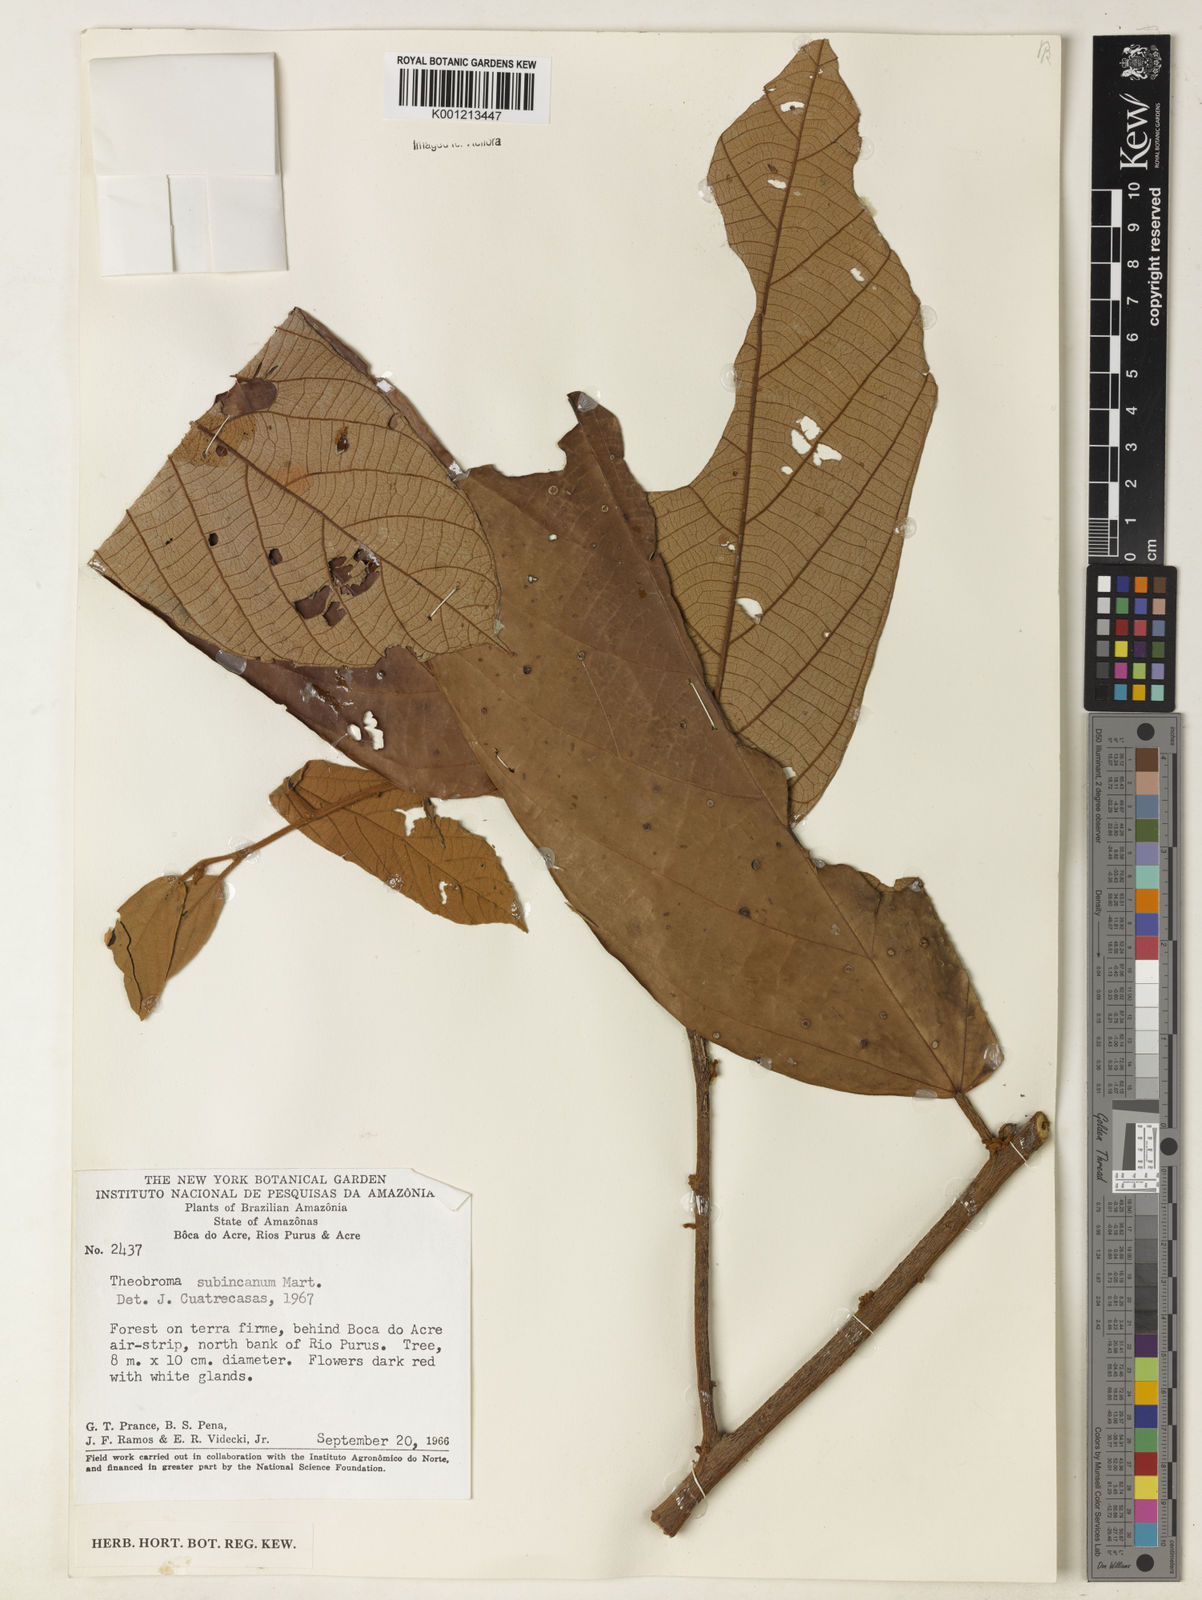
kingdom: Plantae
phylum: Tracheophyta
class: Magnoliopsida
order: Malvales
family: Malvaceae
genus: Theobroma
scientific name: Theobroma subincanum
